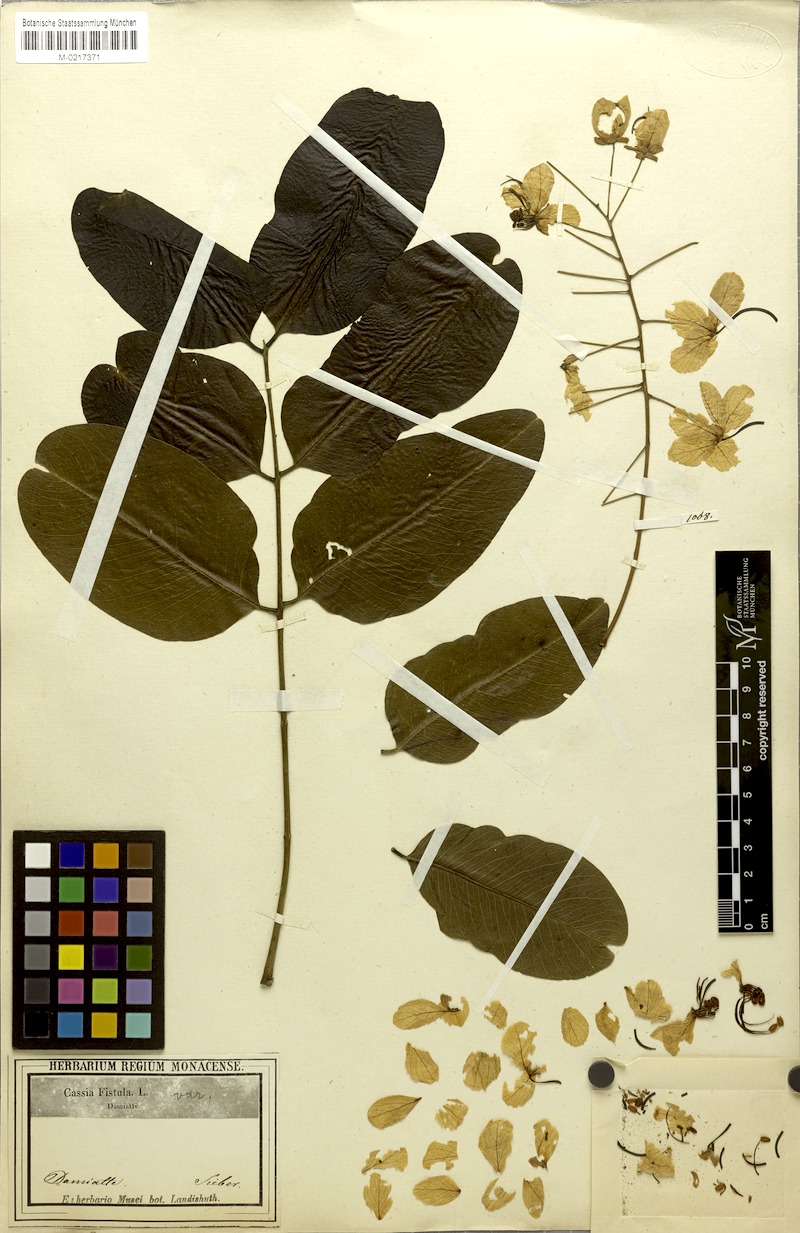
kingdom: Plantae
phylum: Tracheophyta
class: Magnoliopsida
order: Fabales
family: Fabaceae
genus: Cassia
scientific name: Cassia fistula
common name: Golden shower
